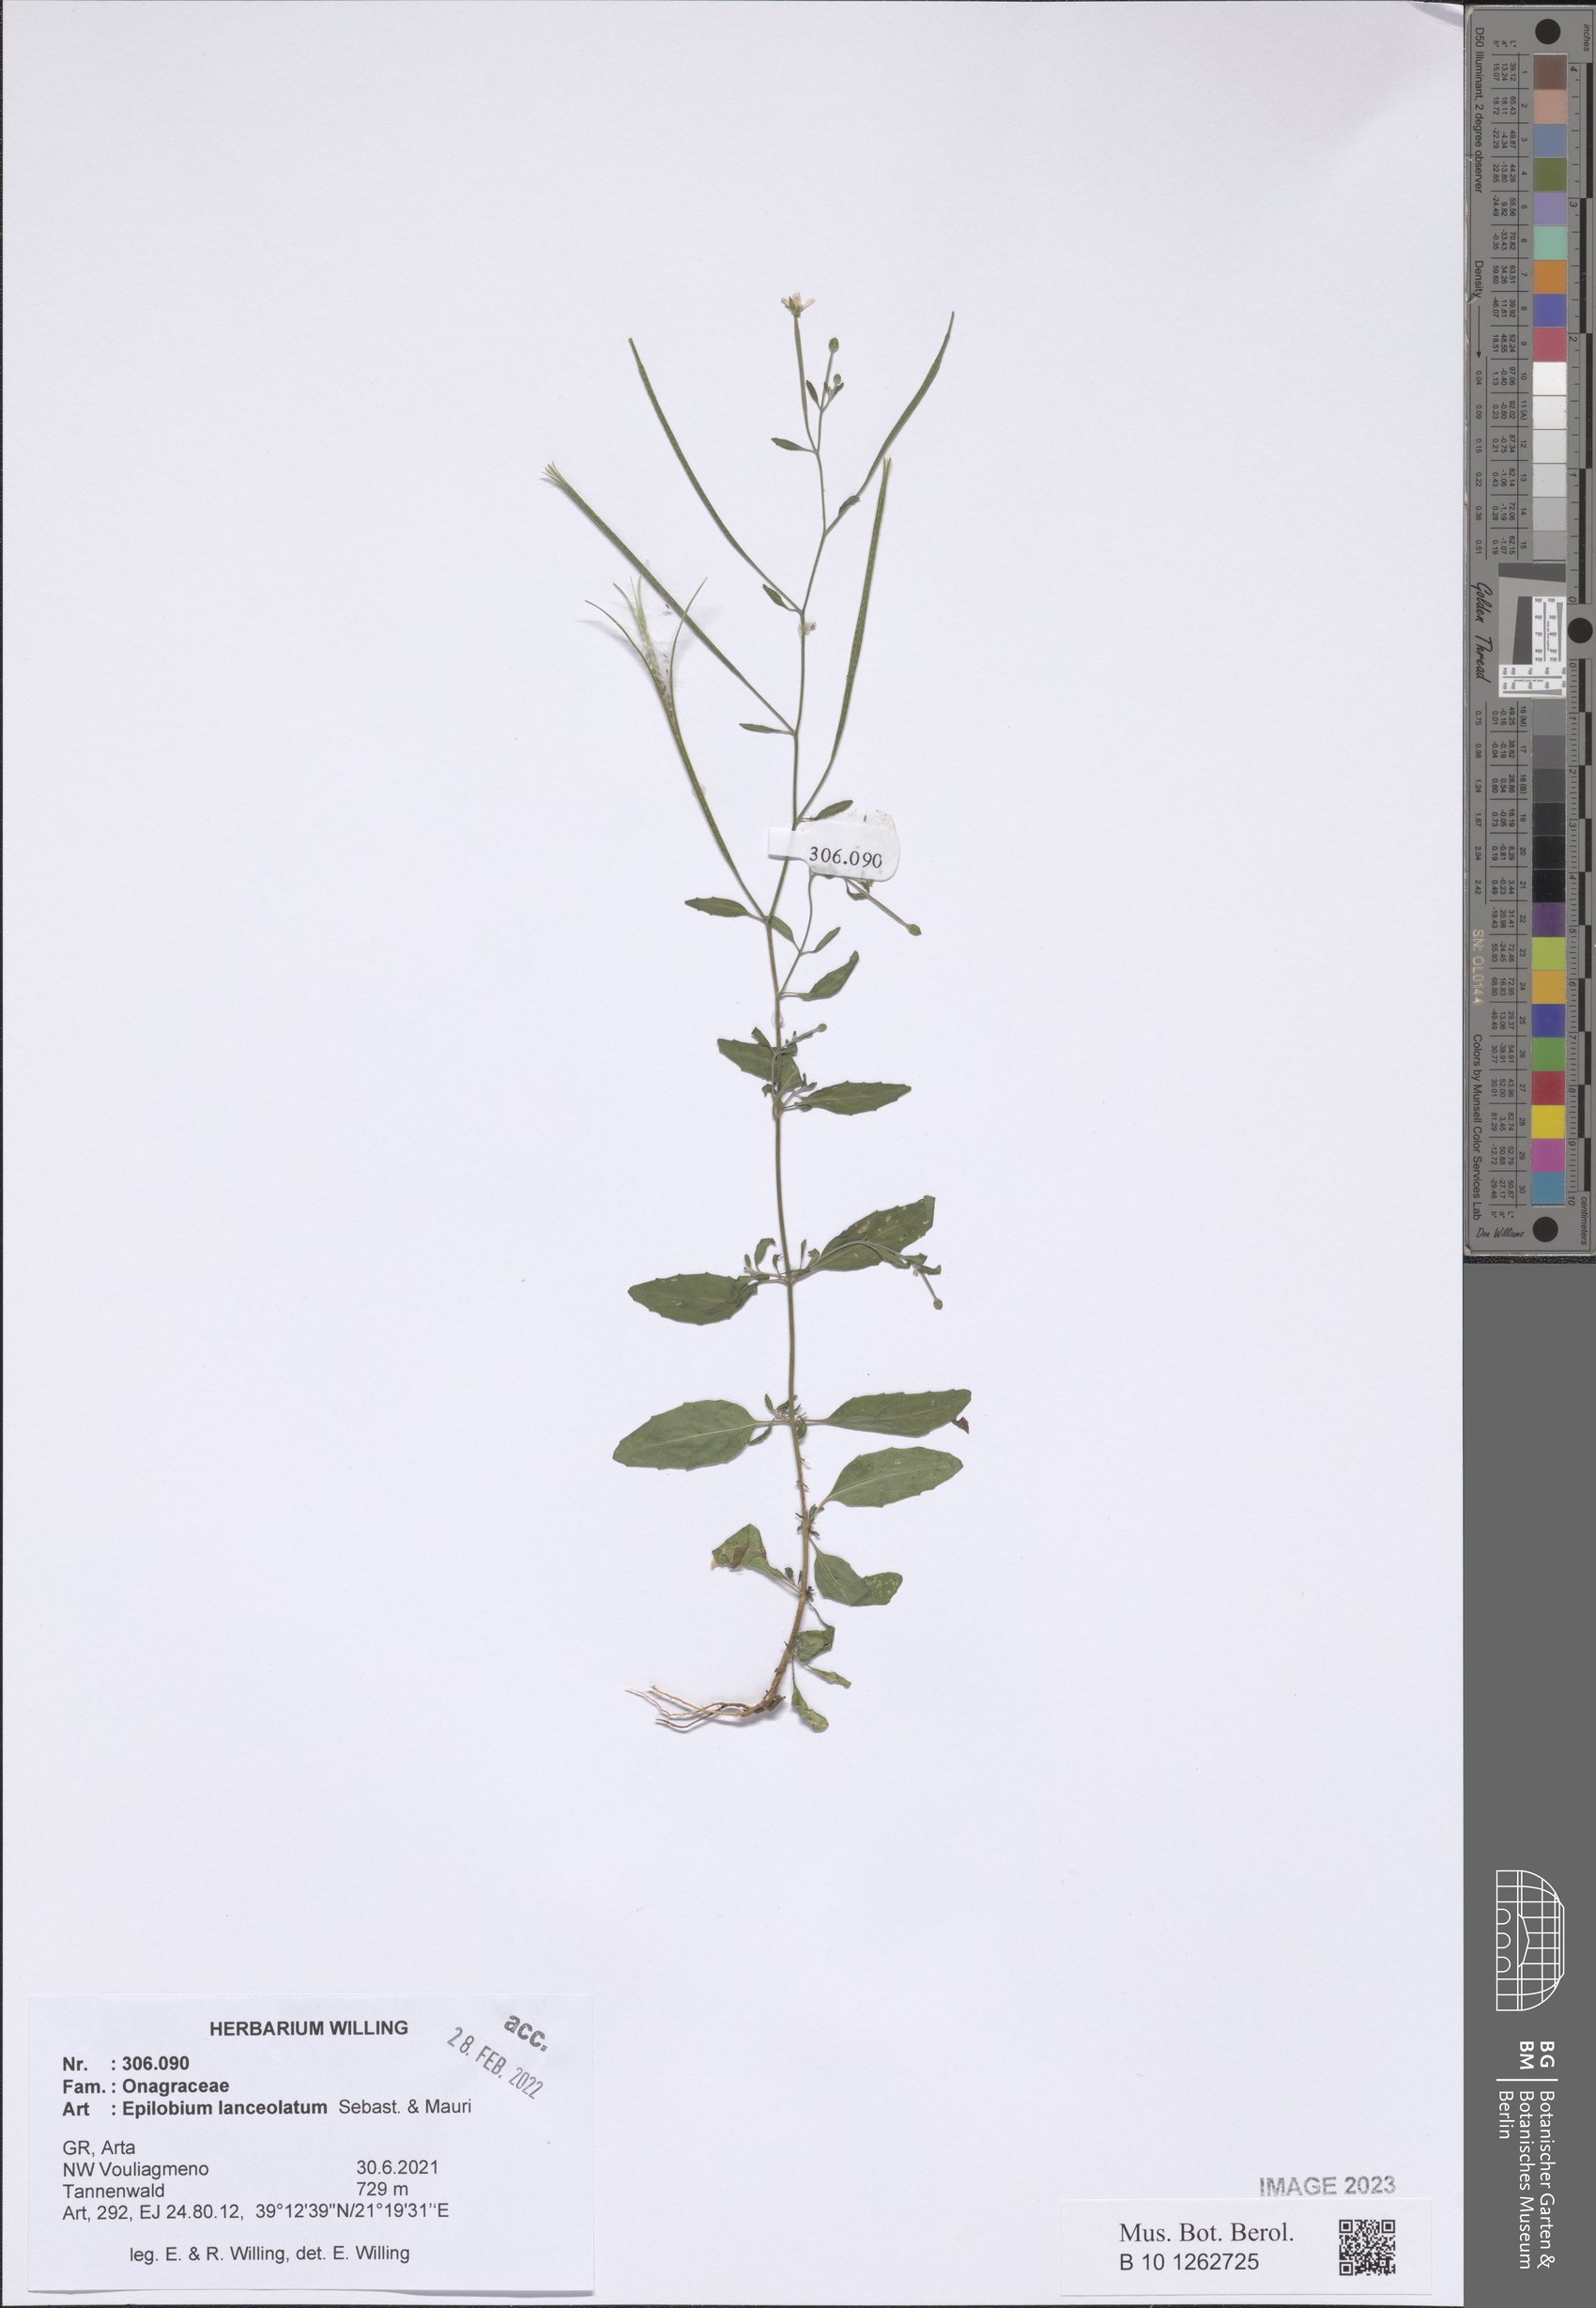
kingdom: Plantae
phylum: Tracheophyta
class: Magnoliopsida
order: Myrtales
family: Onagraceae
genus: Epilobium
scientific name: Epilobium lanceolatum
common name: Spear-leaved willowherb
